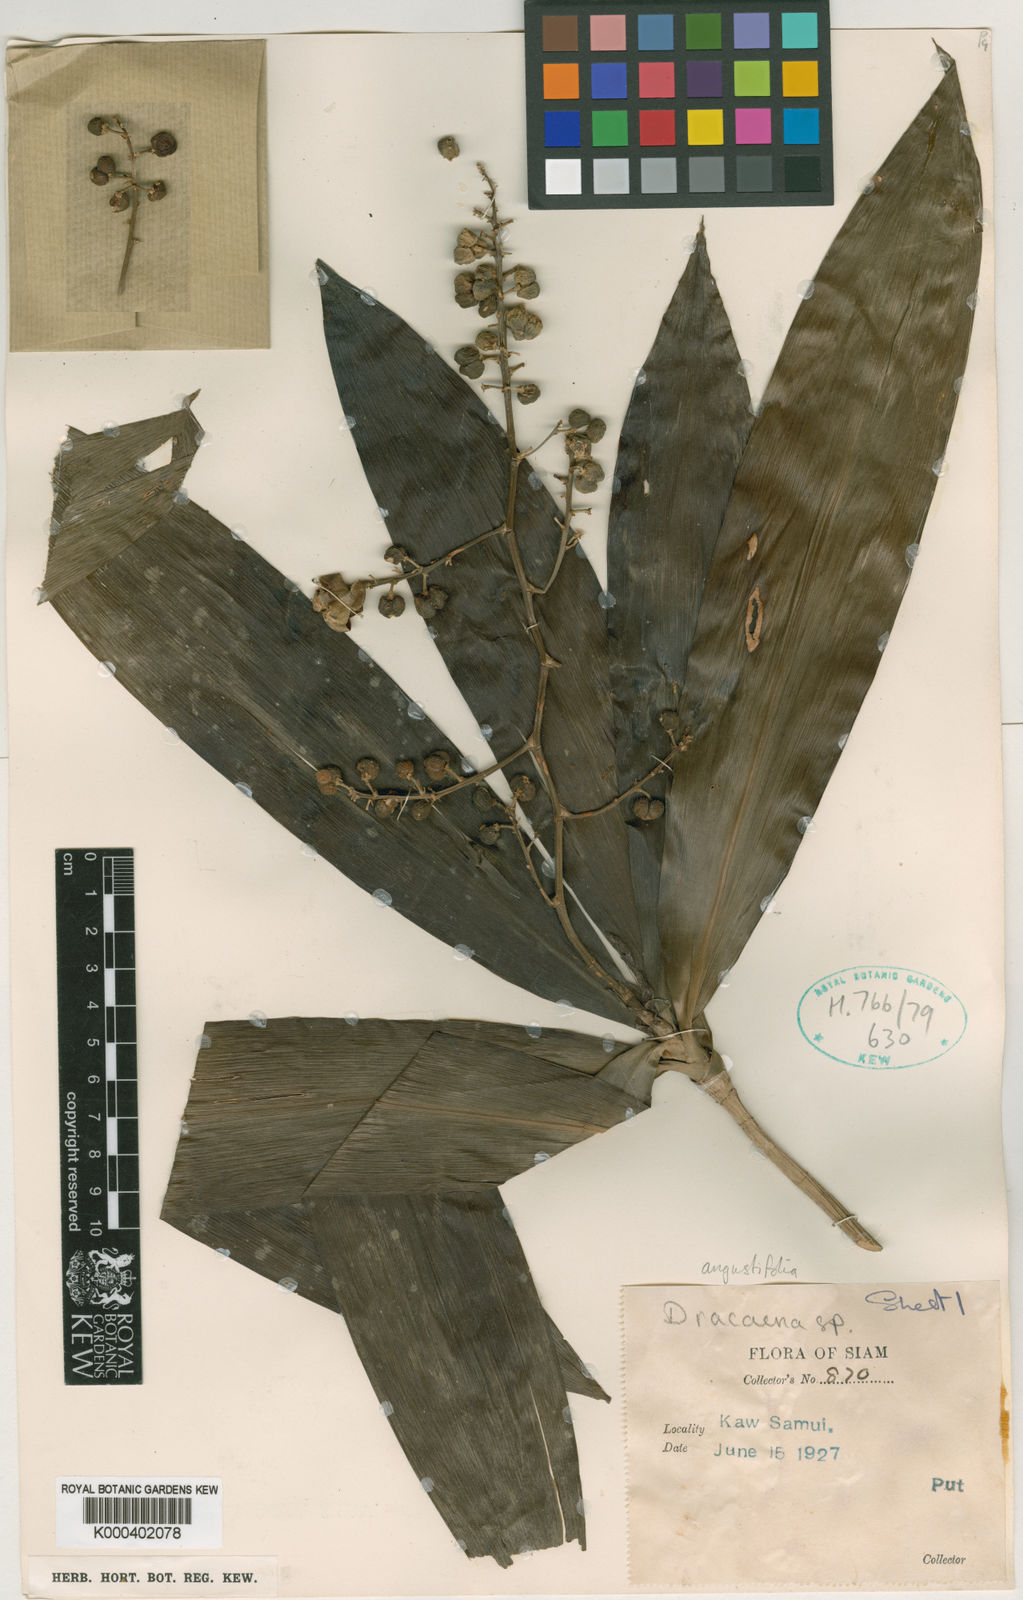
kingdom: Plantae
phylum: Tracheophyta
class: Liliopsida
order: Asparagales
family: Asparagaceae
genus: Dracaena
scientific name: Dracaena angustifolia
